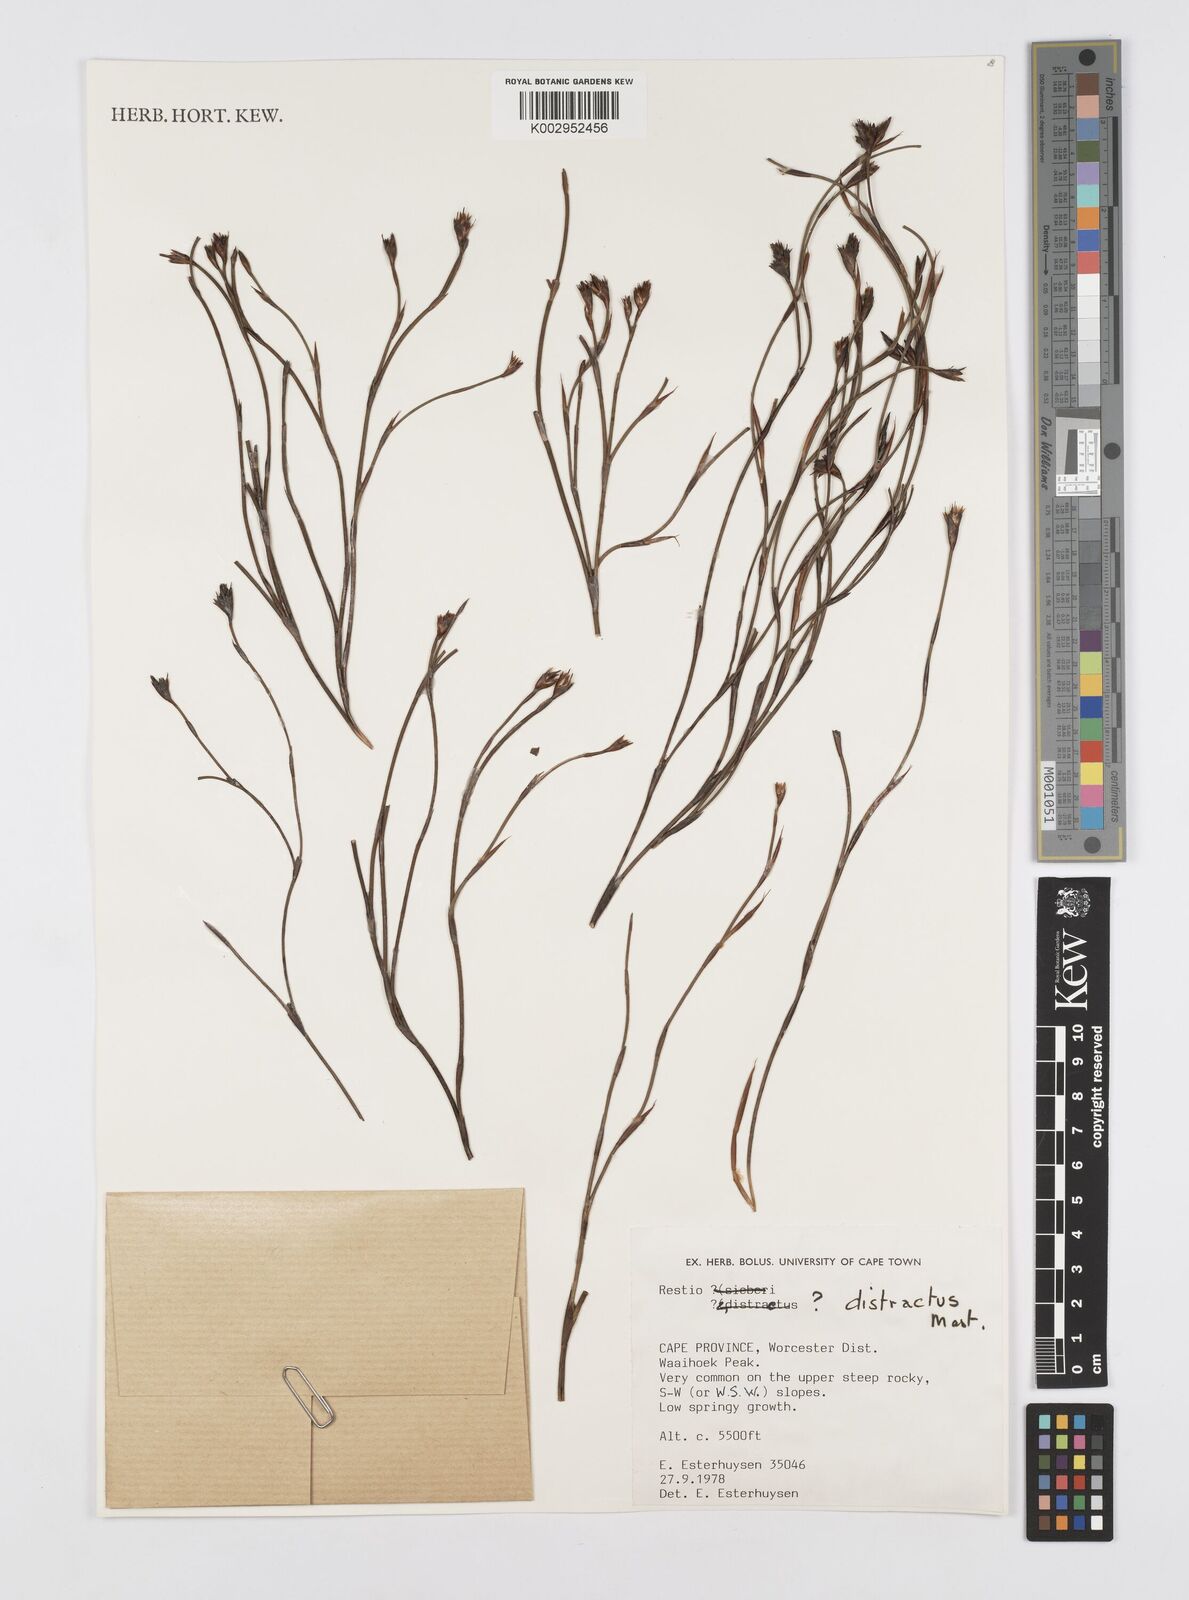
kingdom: Plantae
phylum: Tracheophyta
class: Liliopsida
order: Poales
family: Restionaceae
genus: Restio
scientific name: Restio distractus
